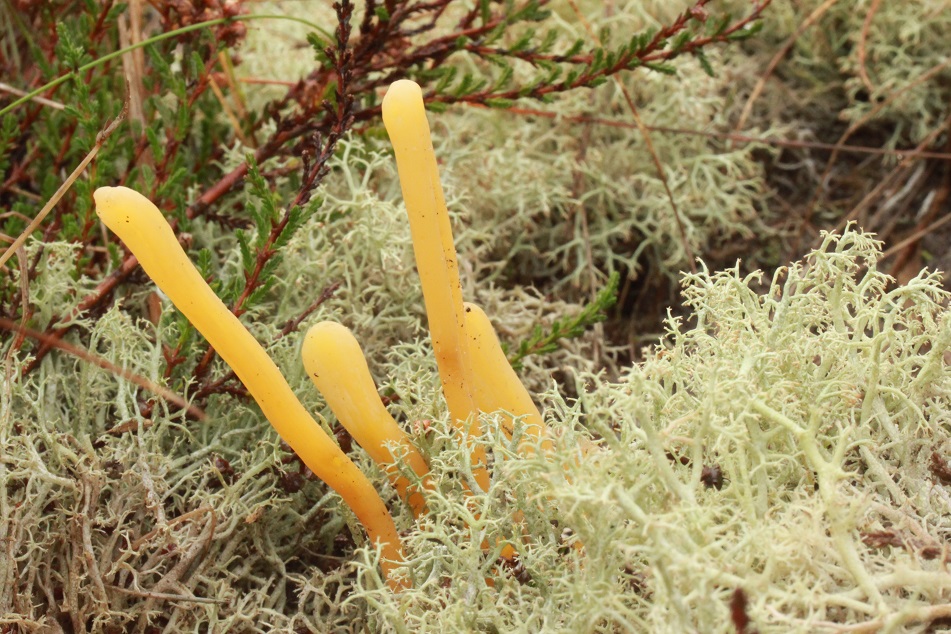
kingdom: Fungi
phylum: Basidiomycota
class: Agaricomycetes
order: Agaricales
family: Clavariaceae
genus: Clavaria
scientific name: Clavaria argillacea
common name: lerfarvet køllesvamp
